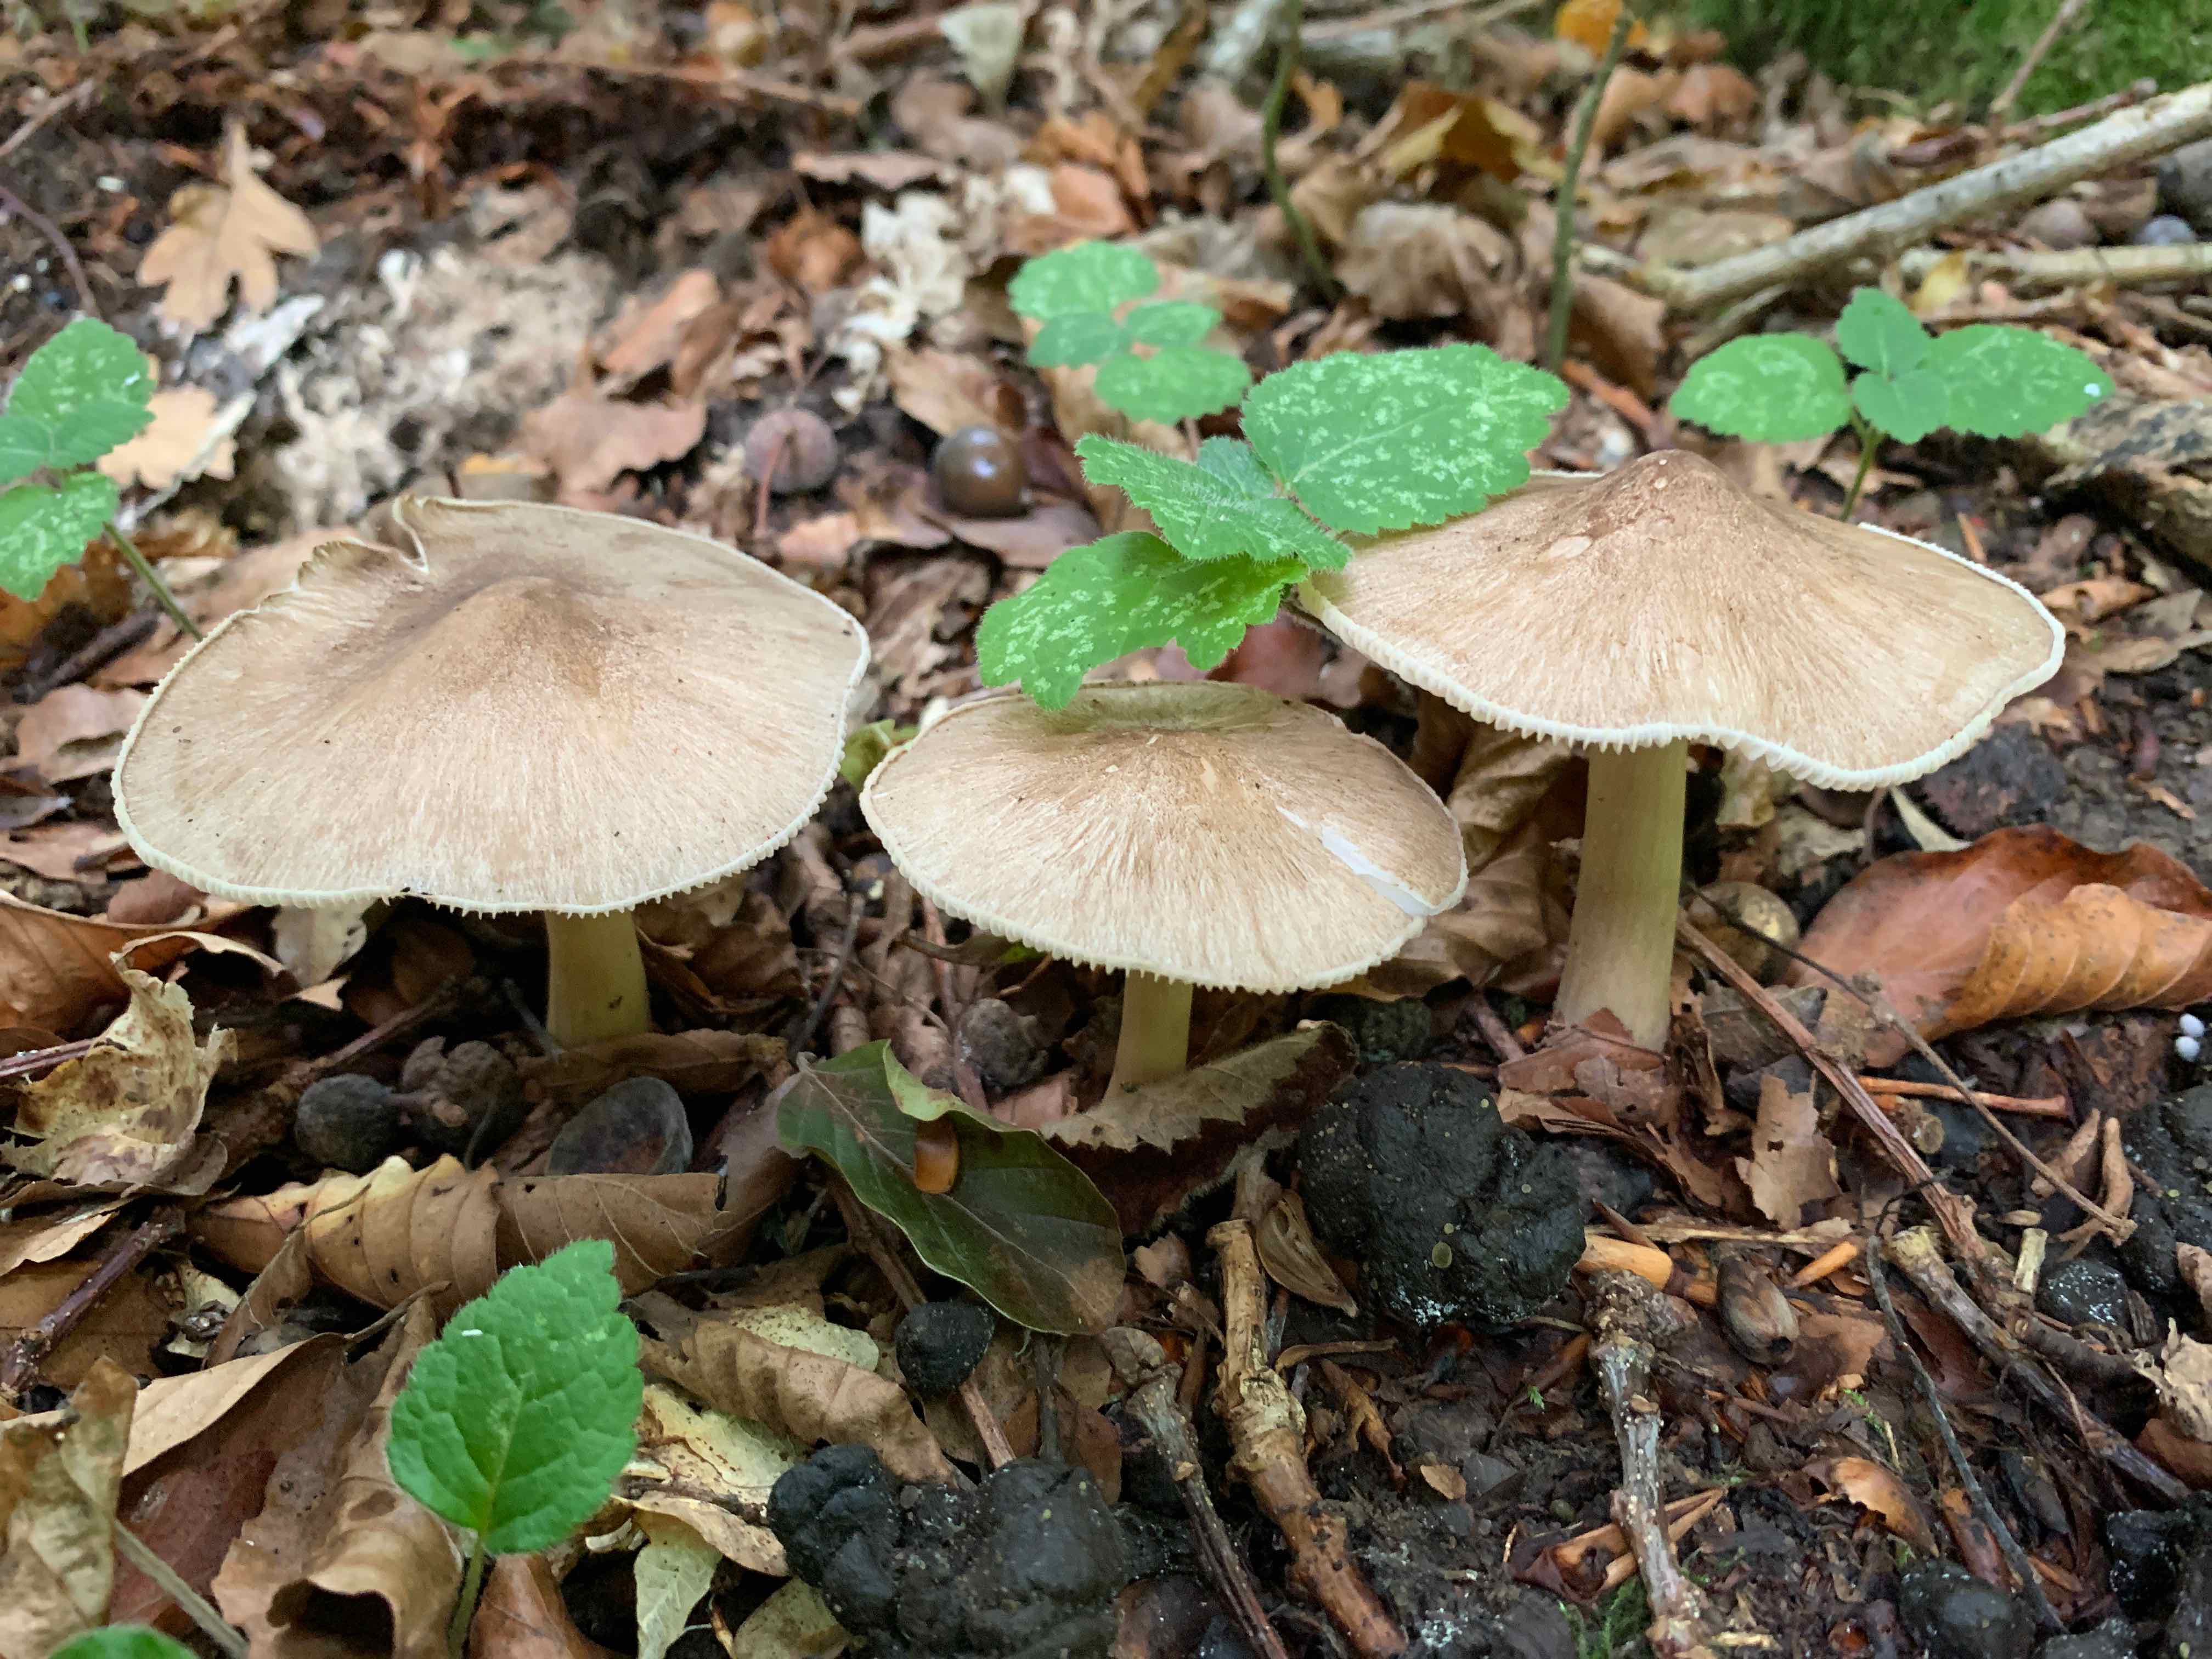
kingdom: Fungi
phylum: Basidiomycota
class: Agaricomycetes
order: Agaricales
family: Tricholomataceae
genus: Megacollybia
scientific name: Megacollybia platyphylla
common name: bredbladet væbnerhat
